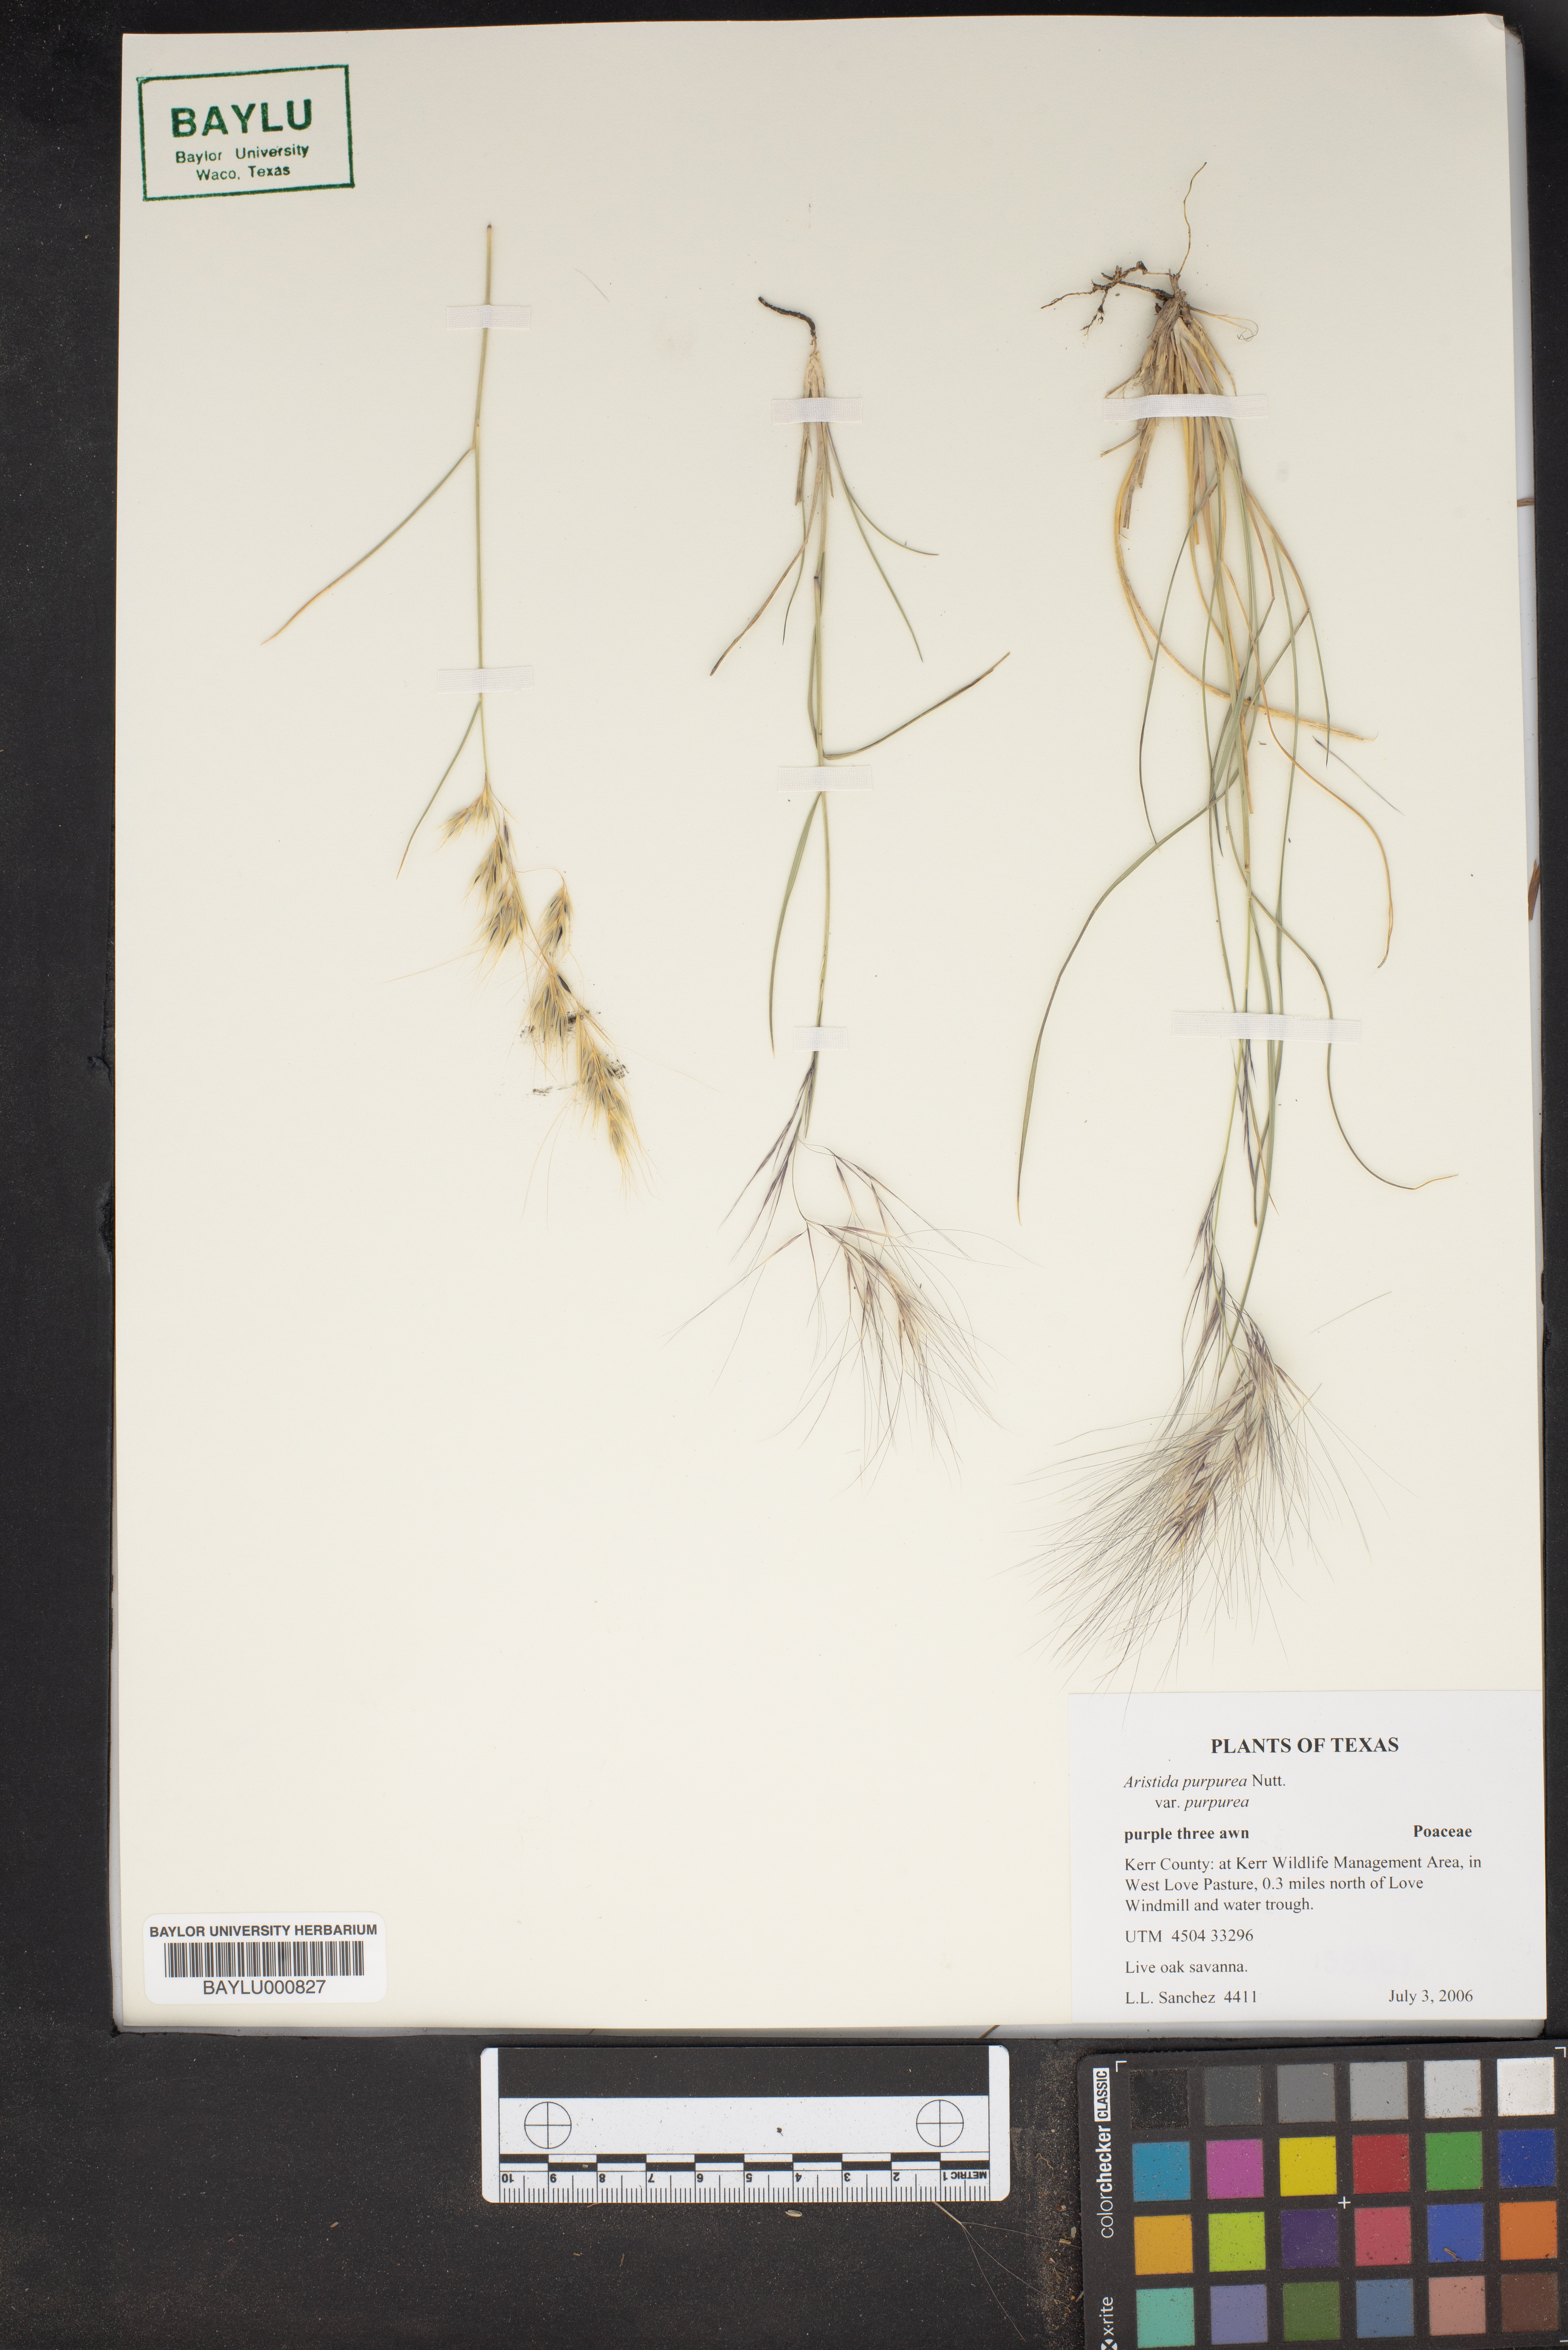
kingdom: Plantae
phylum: Tracheophyta
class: Liliopsida
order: Poales
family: Poaceae
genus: Aristida
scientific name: Aristida purpurea
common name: Purple threeawn
